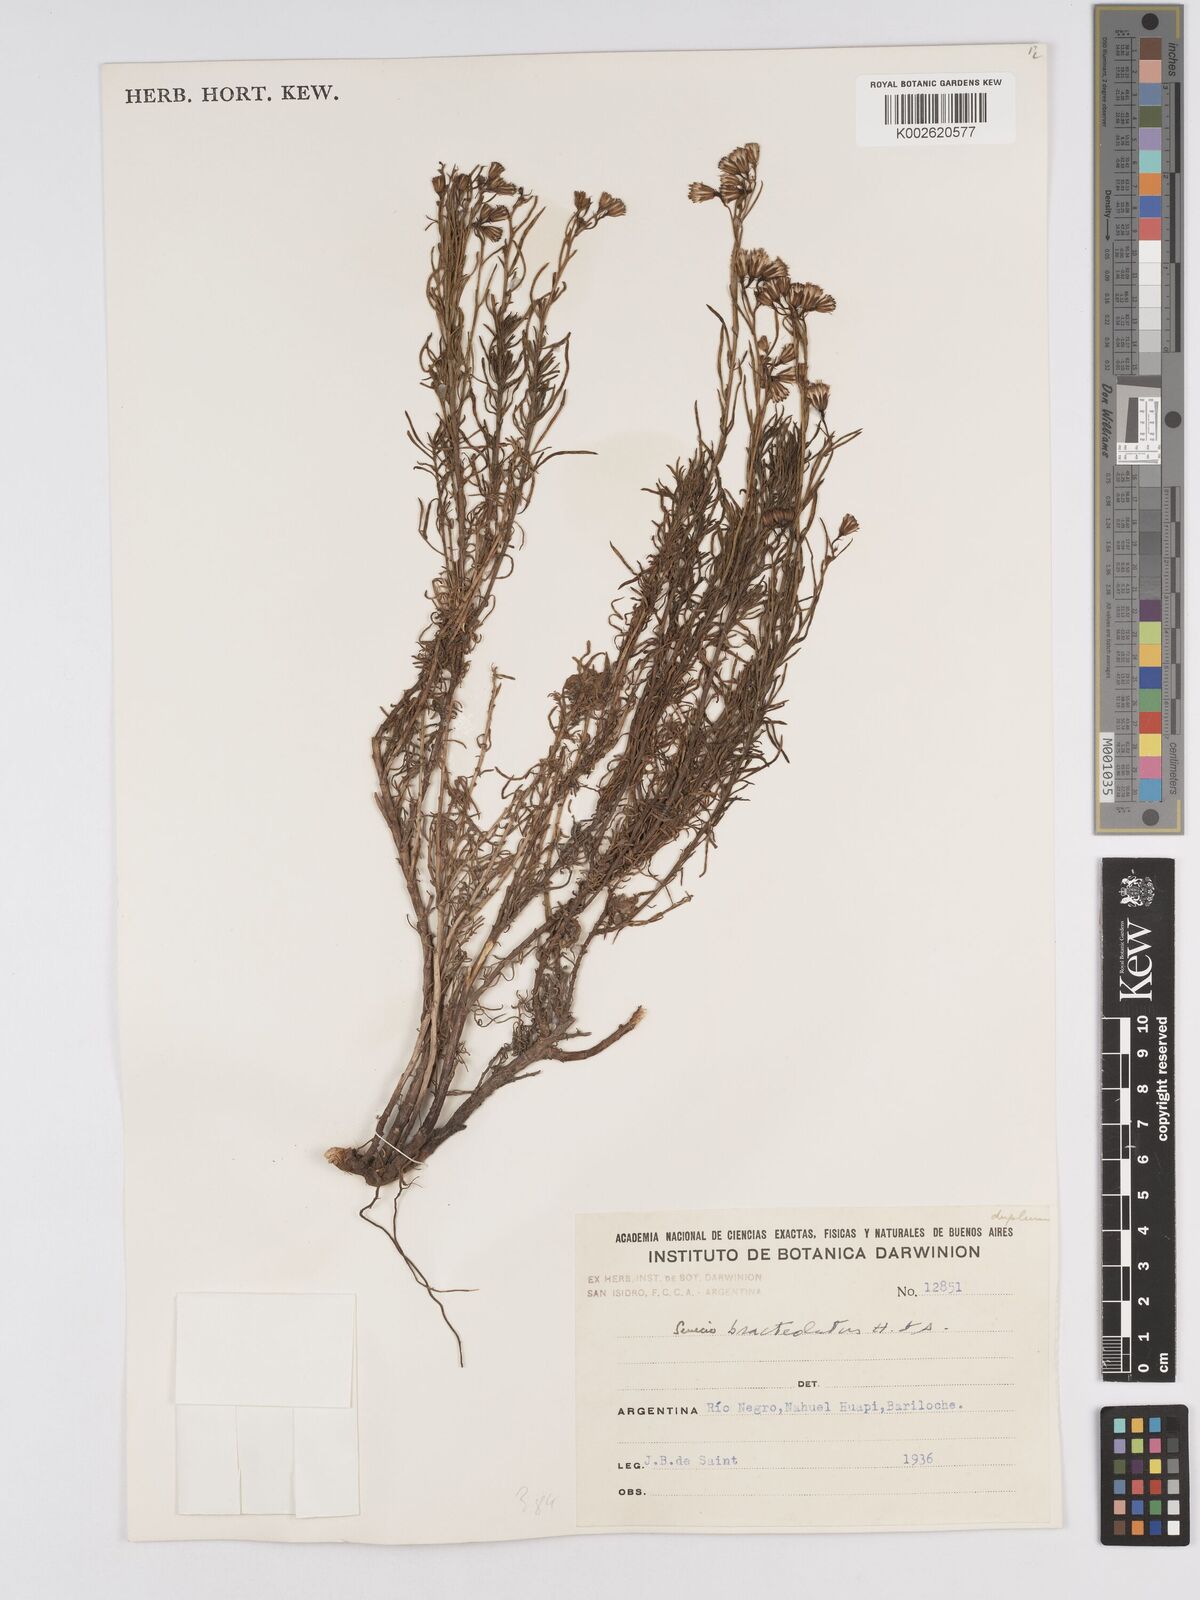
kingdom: Plantae
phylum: Tracheophyta
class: Magnoliopsida
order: Asterales
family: Asteraceae
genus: Senecio
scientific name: Senecio bracteolatus
